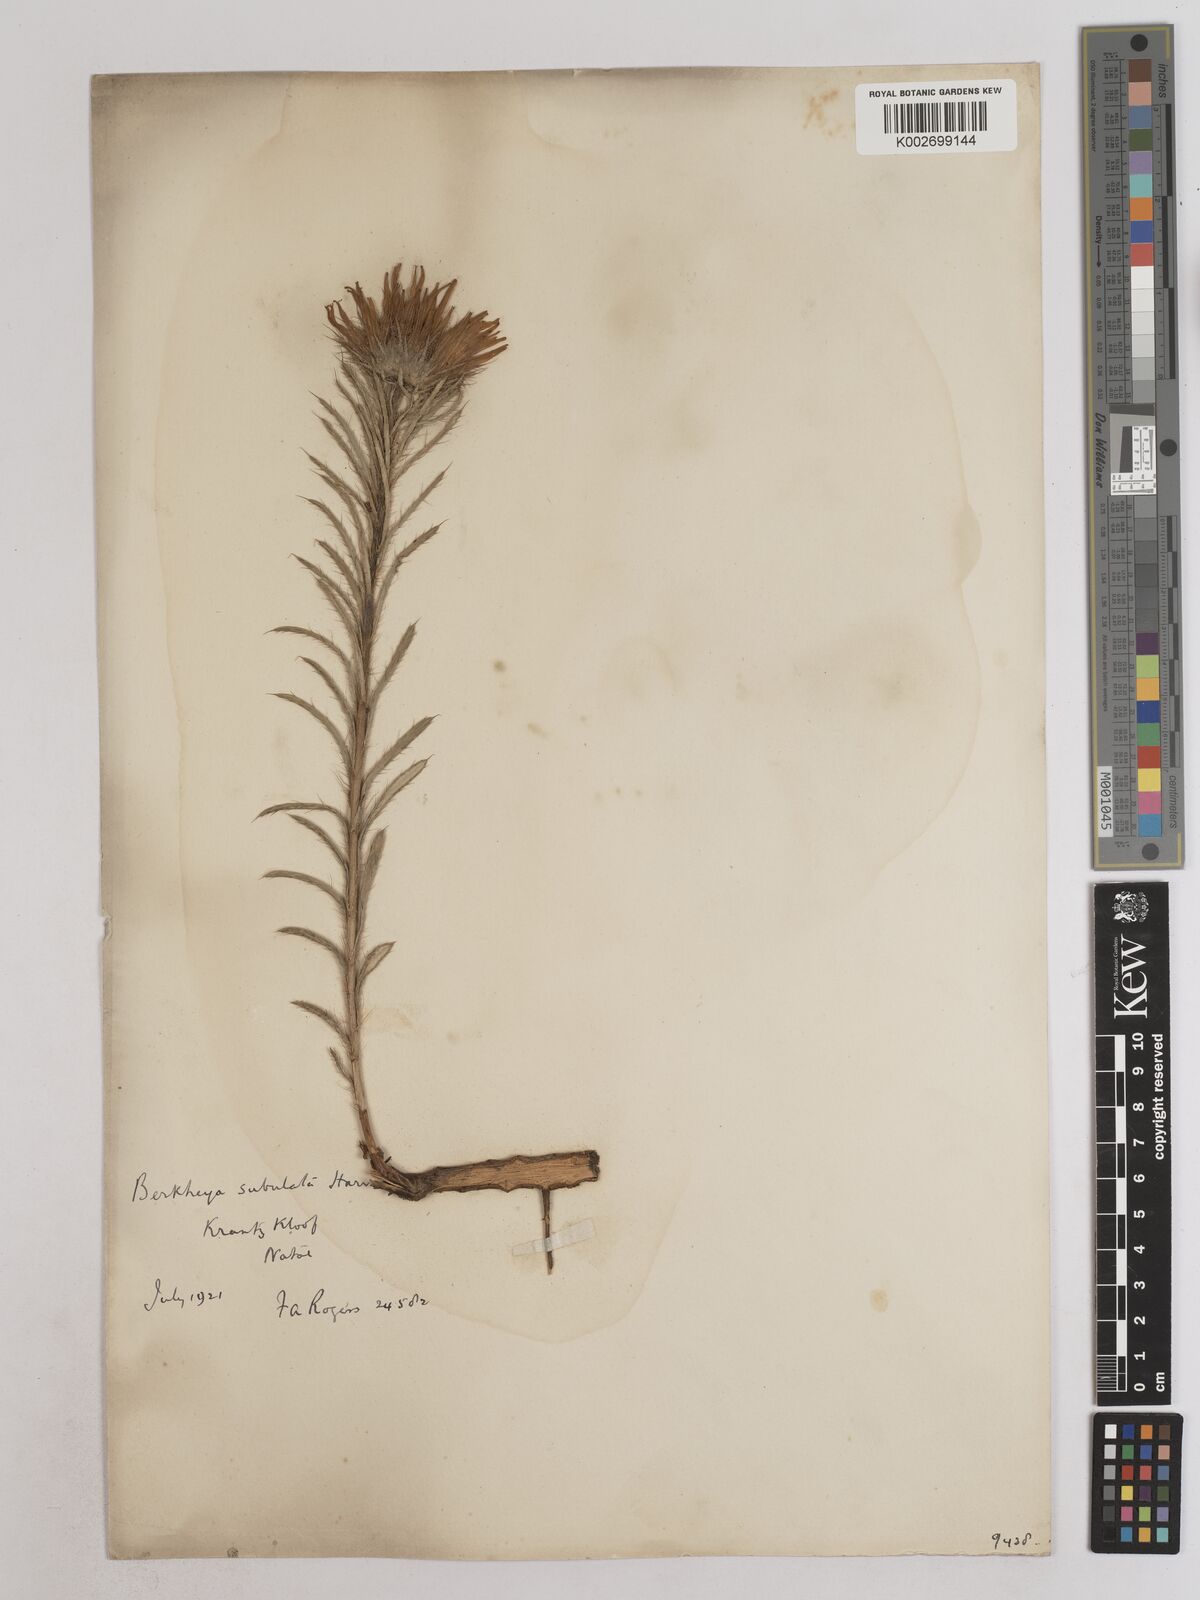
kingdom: Plantae
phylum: Tracheophyta
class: Magnoliopsida
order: Asterales
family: Asteraceae
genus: Berkheya
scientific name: Berkheya subulata
